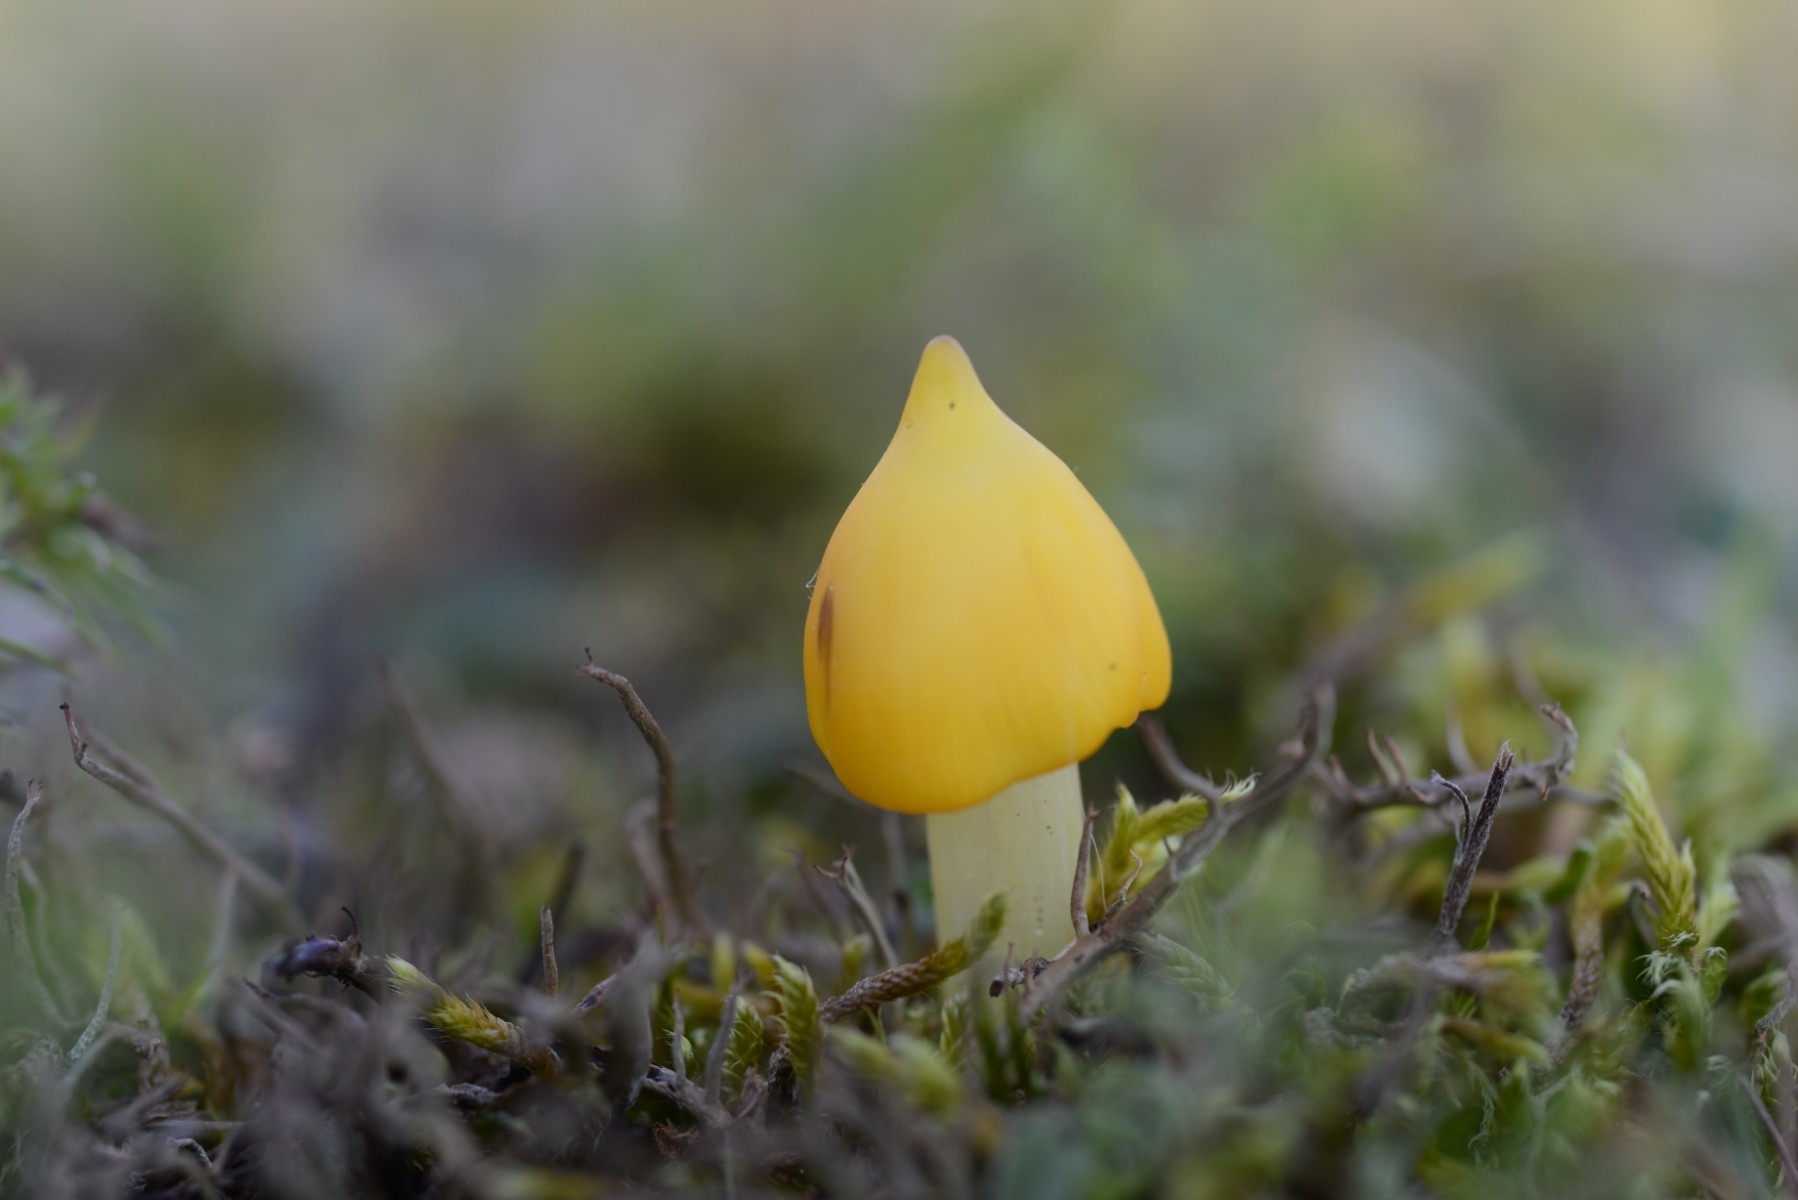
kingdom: Fungi
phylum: Basidiomycota
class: Agaricomycetes
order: Agaricales
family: Hygrophoraceae
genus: Hygrocybe
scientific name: Hygrocybe
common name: vokshat
